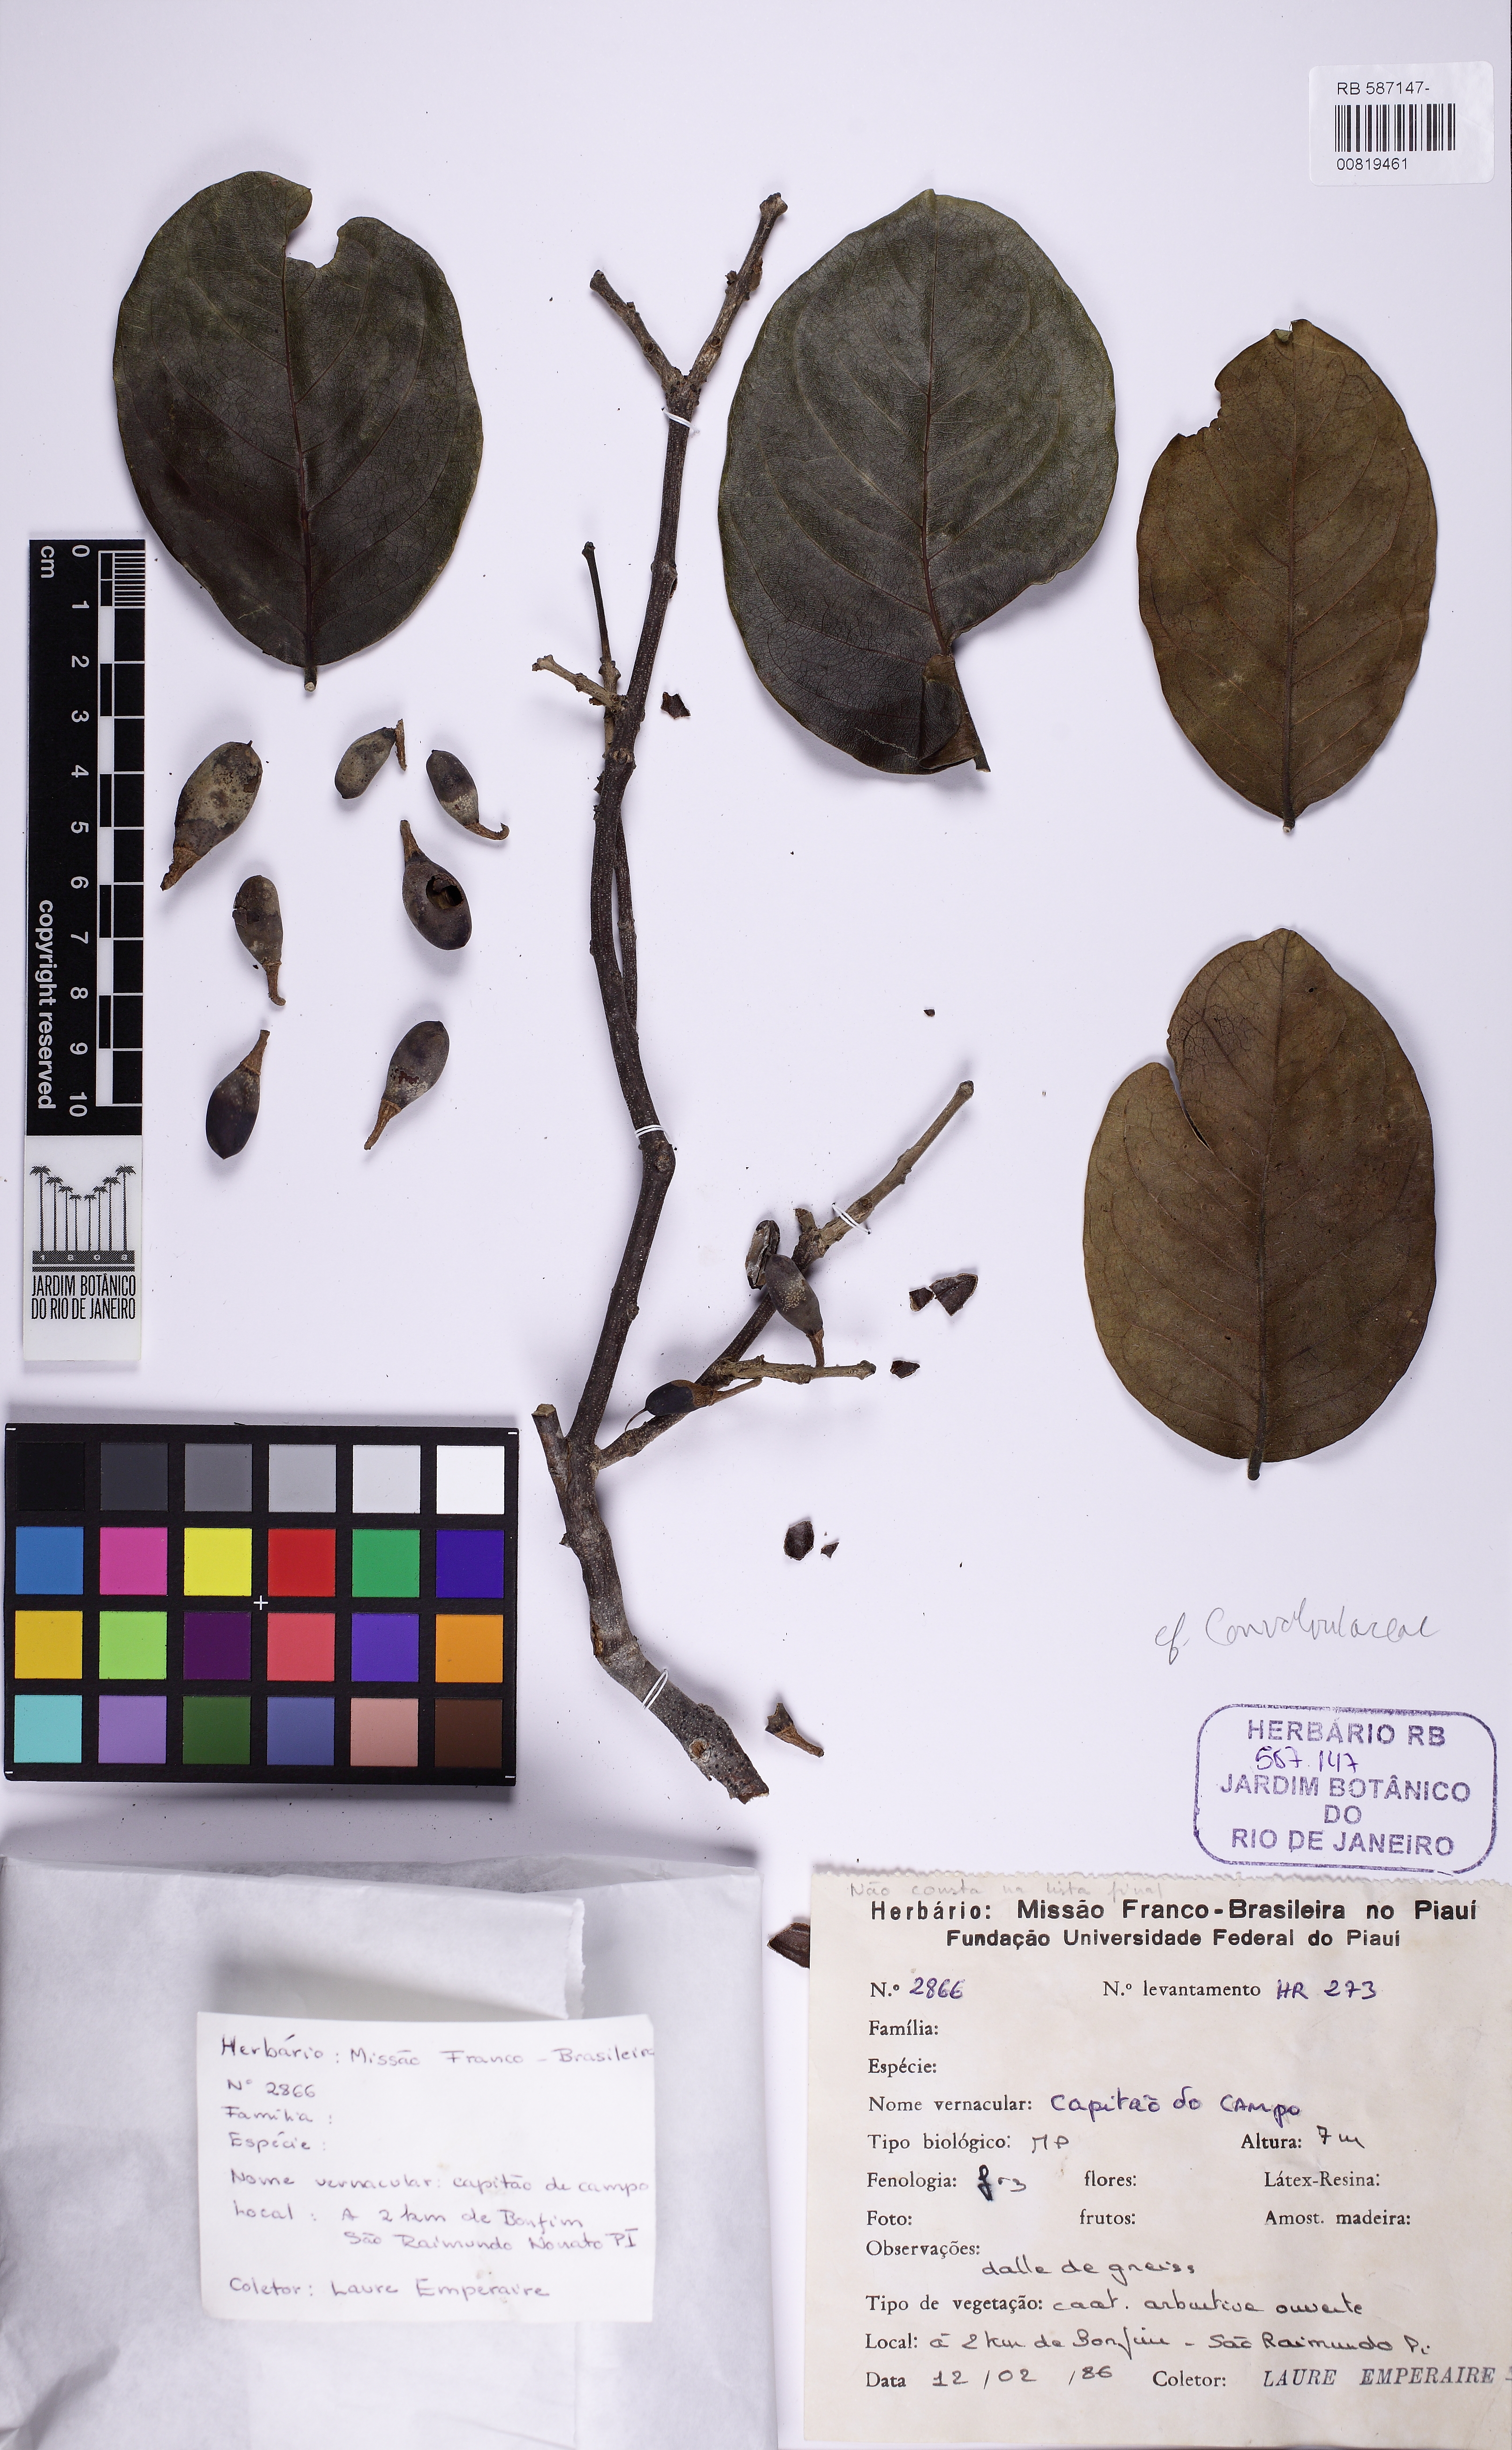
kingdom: Plantae
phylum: Tracheophyta
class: Magnoliopsida
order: Lamiales
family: Lamiaceae
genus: Aegiphila
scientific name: Aegiphila
